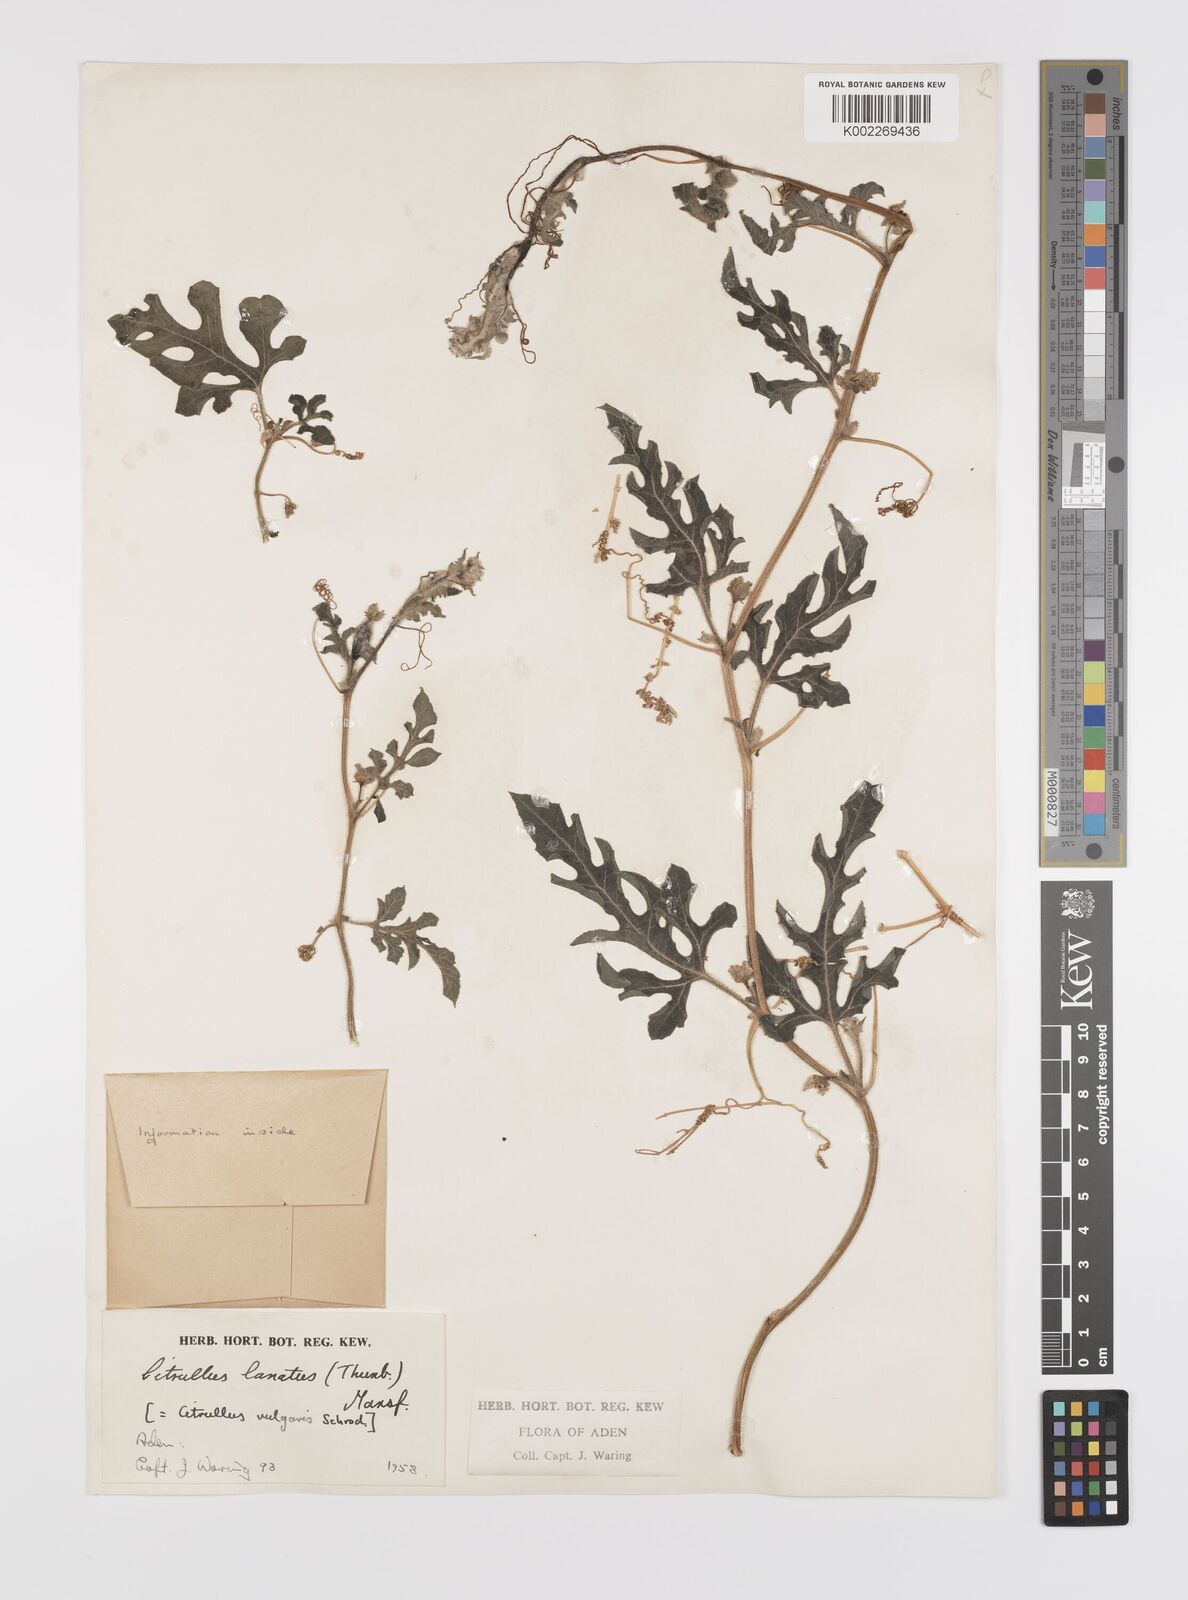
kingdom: Plantae
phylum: Tracheophyta
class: Magnoliopsida
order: Cucurbitales
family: Cucurbitaceae
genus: Citrullus
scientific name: Citrullus lanatus
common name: Watermelon
